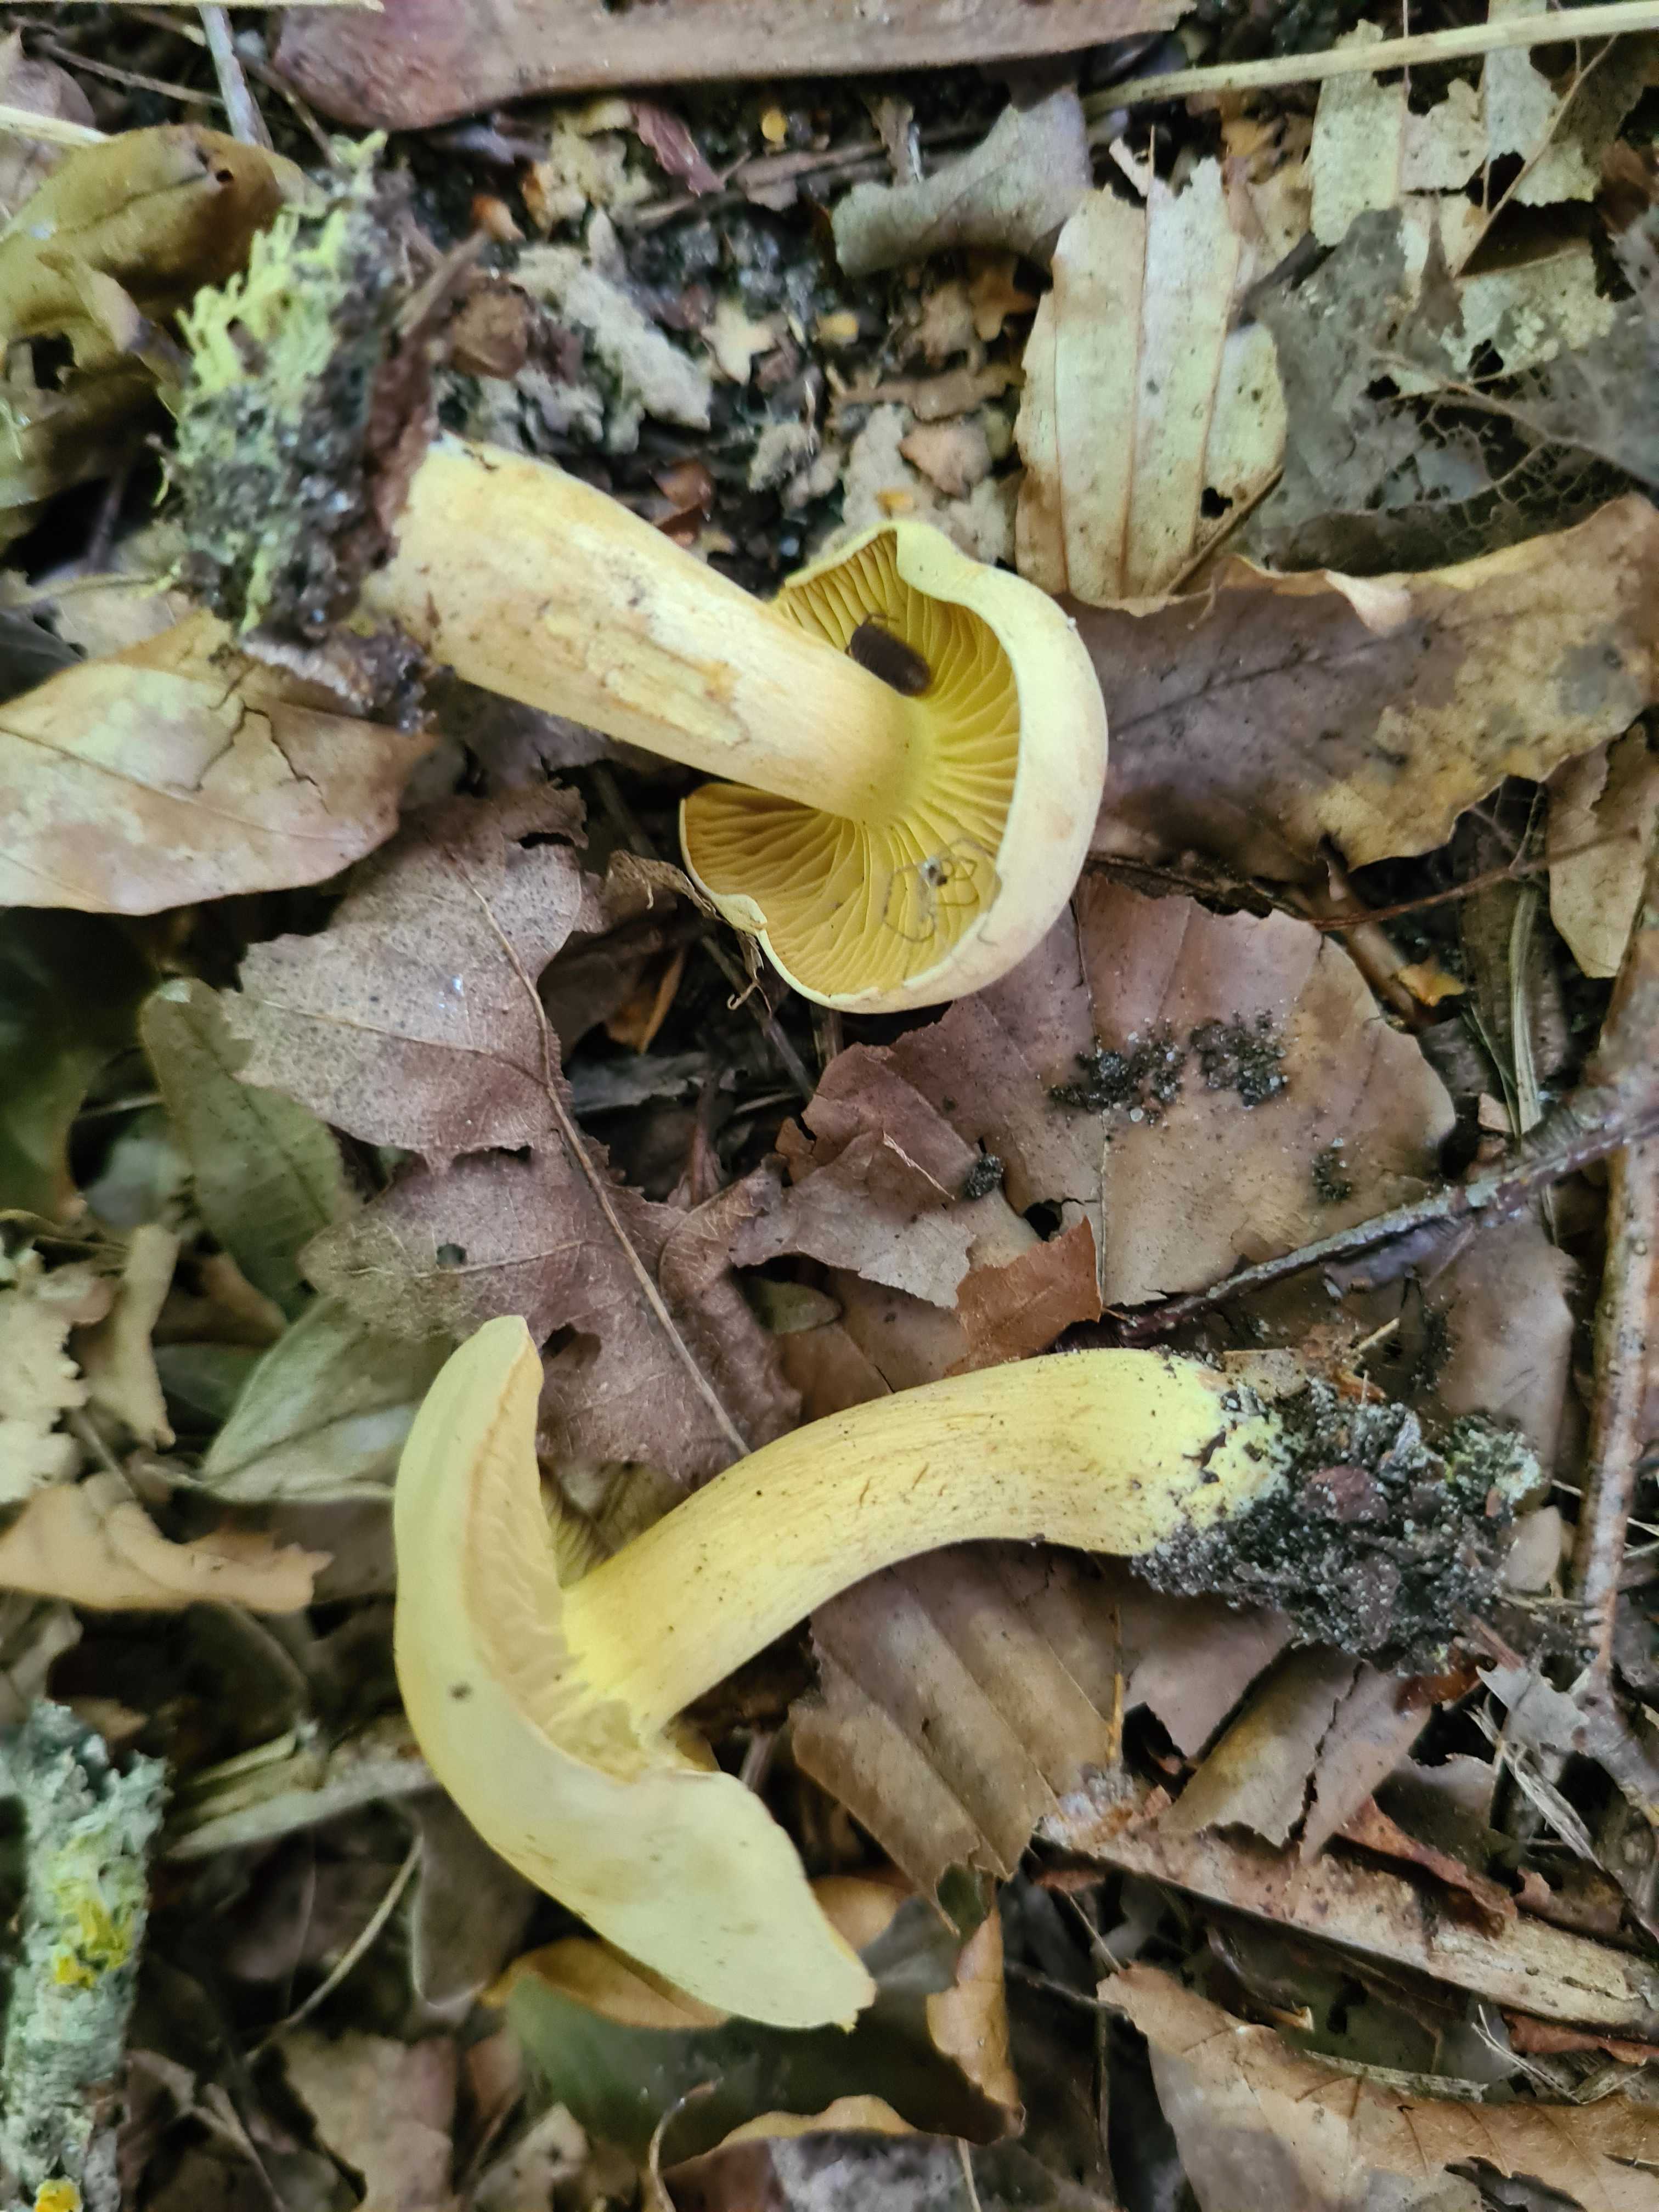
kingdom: Fungi
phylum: Basidiomycota
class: Agaricomycetes
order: Agaricales
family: Tricholomataceae
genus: Tricholoma
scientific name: Tricholoma sulphureum
